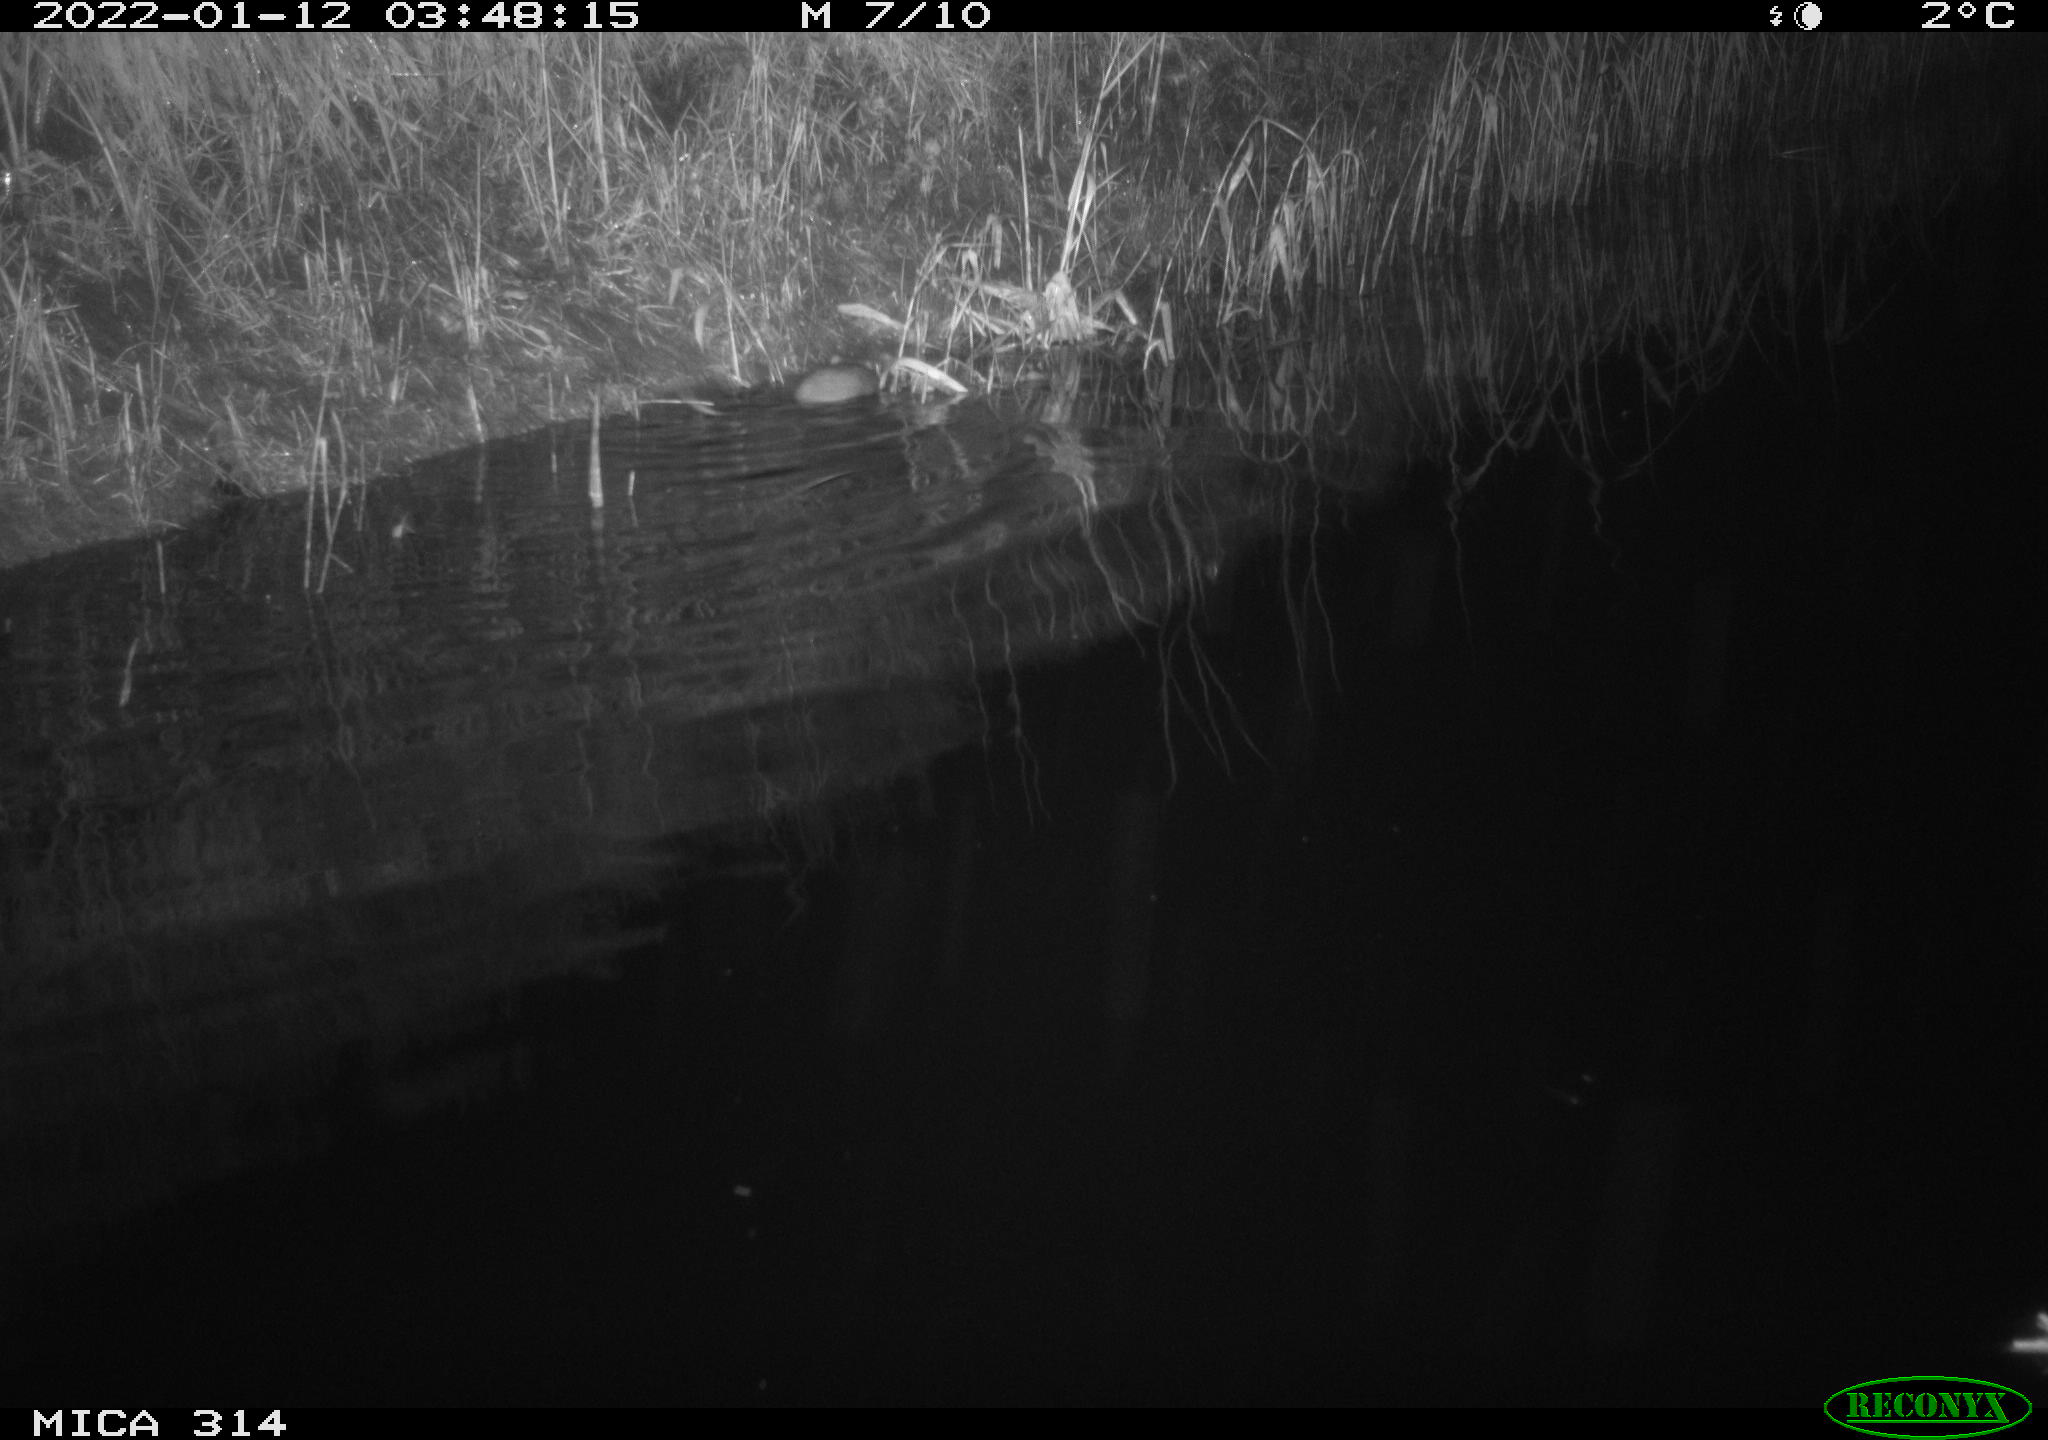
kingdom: Animalia
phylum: Chordata
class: Mammalia
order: Rodentia
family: Muridae
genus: Rattus
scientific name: Rattus norvegicus
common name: Brown rat
